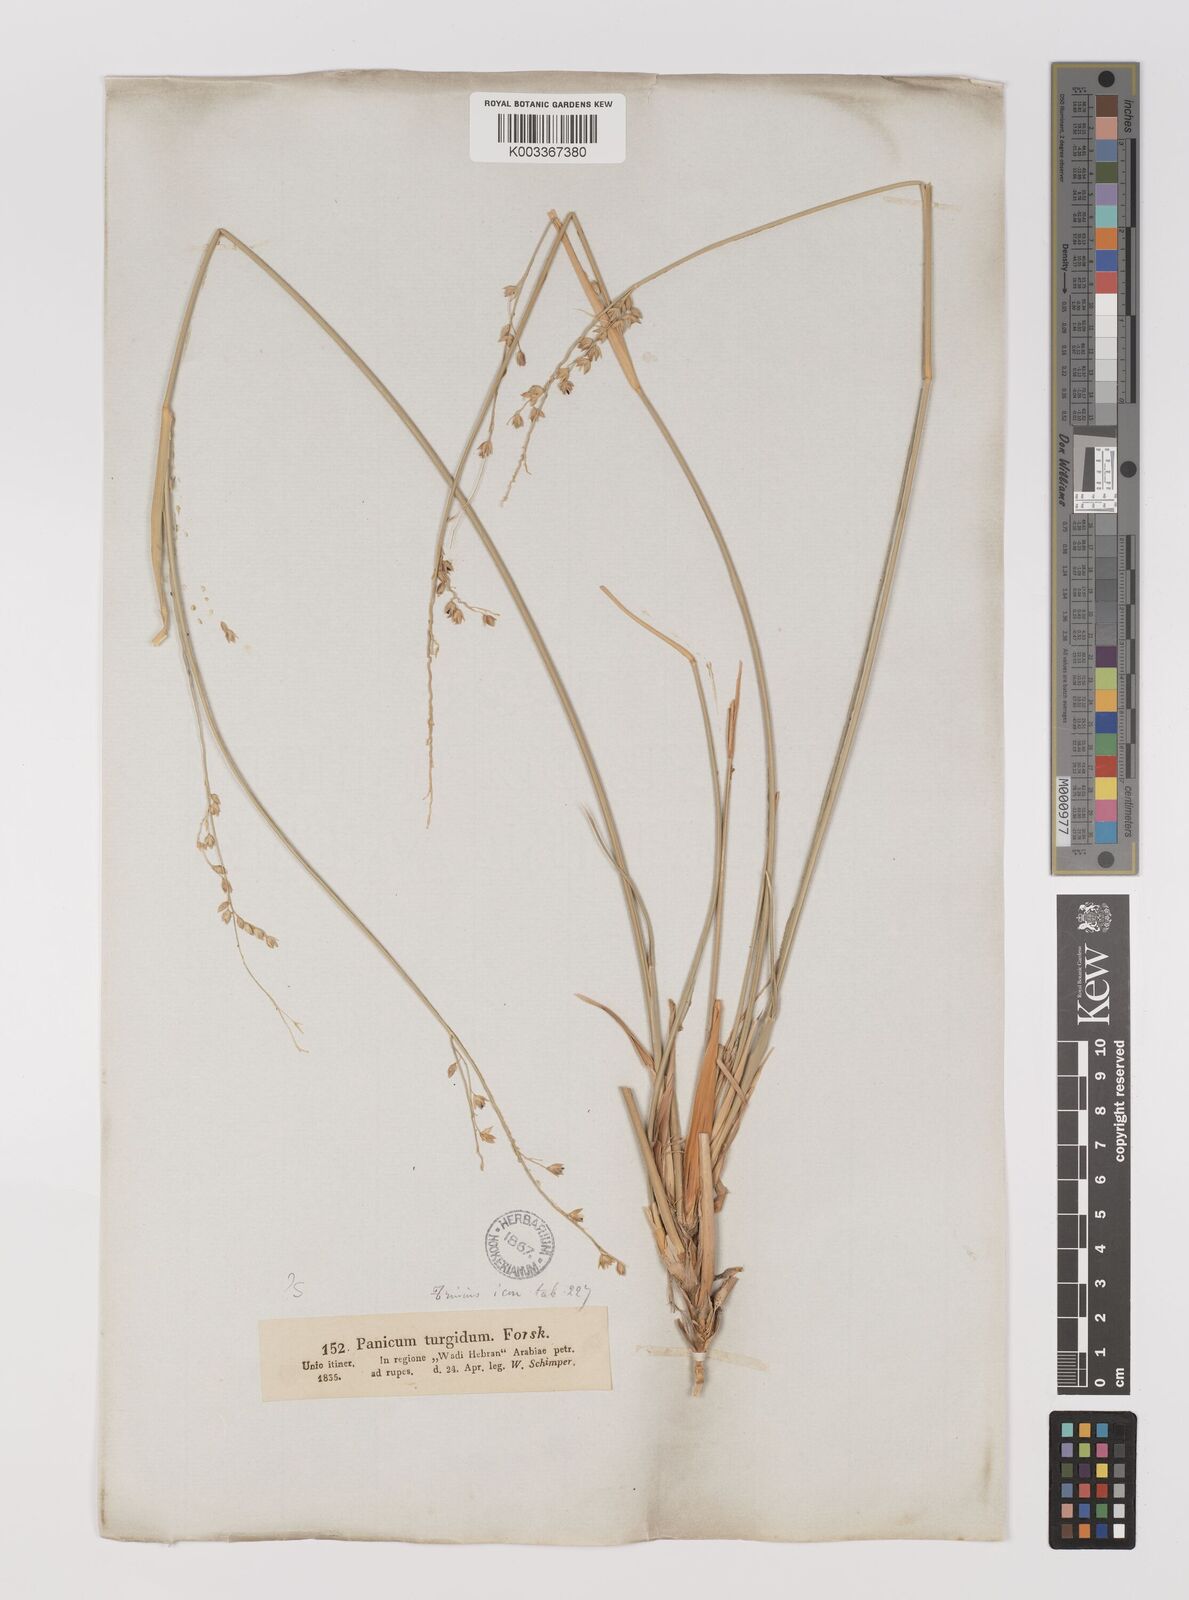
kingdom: Plantae
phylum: Tracheophyta
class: Liliopsida
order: Poales
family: Poaceae
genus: Panicum
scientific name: Panicum turgidum
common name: Desert grass
